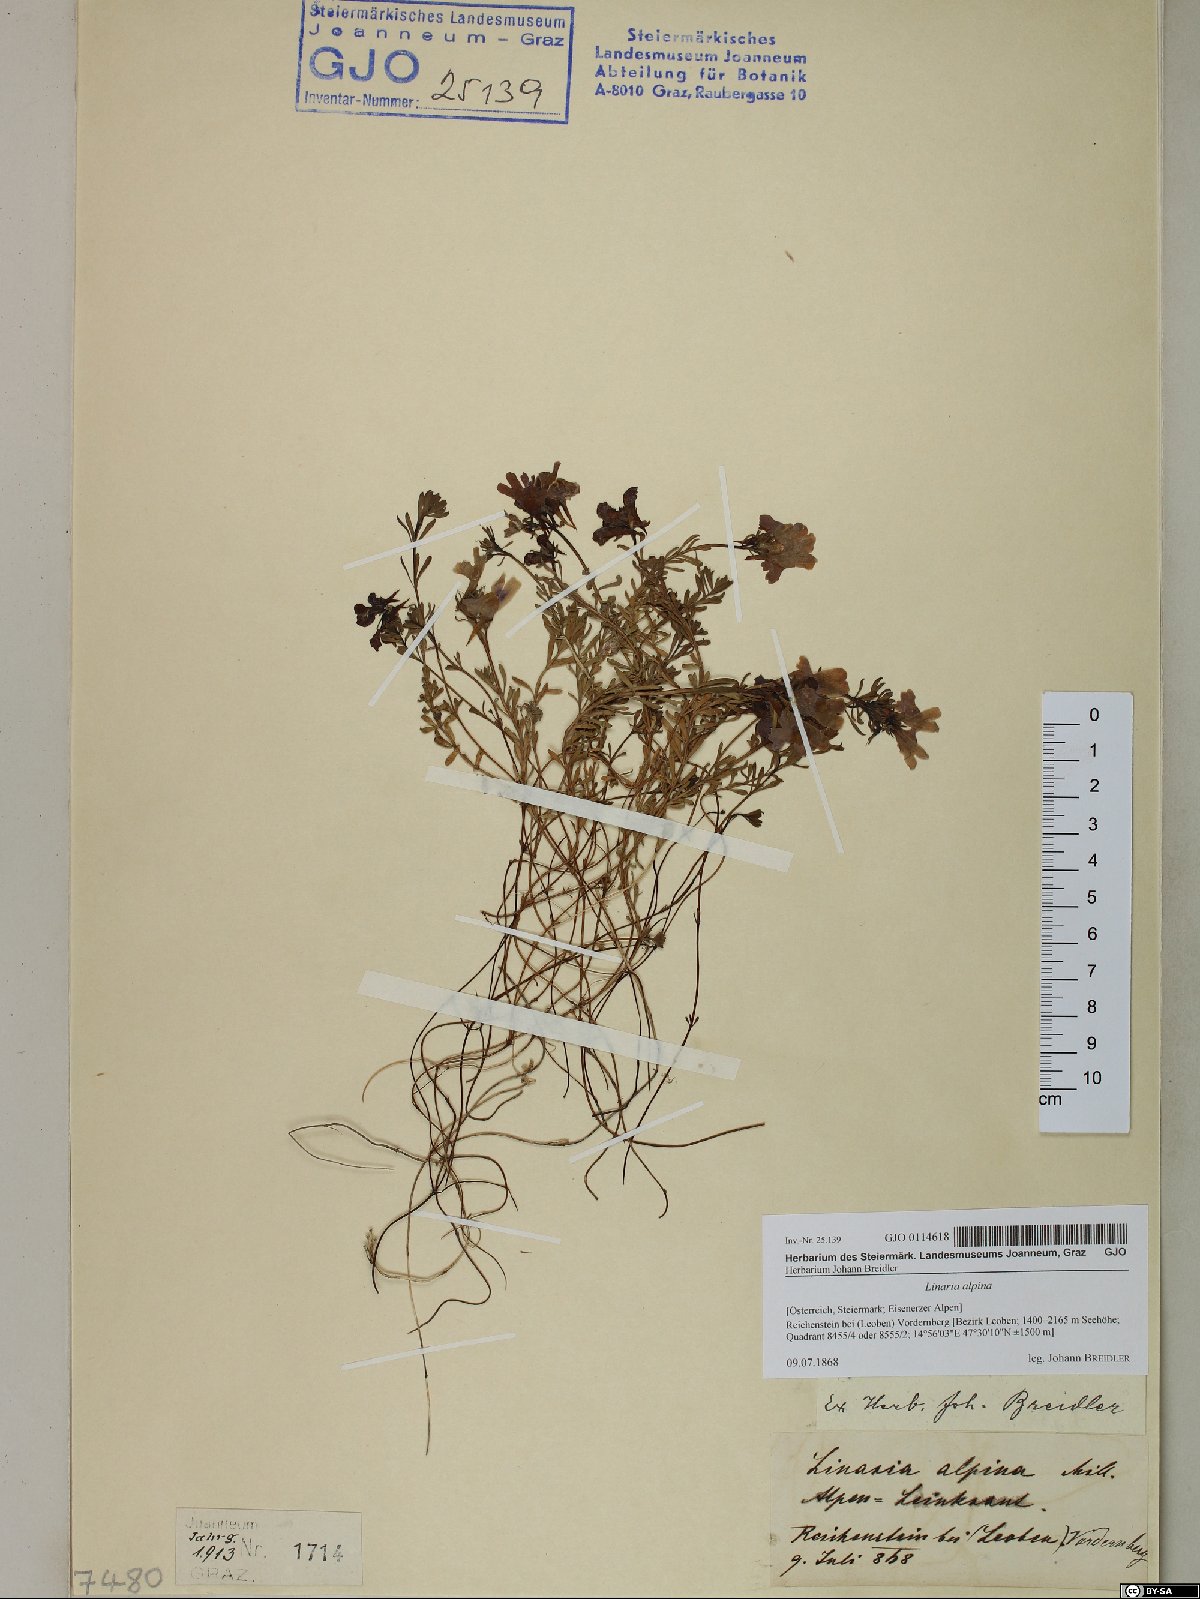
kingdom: Plantae
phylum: Tracheophyta
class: Magnoliopsida
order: Lamiales
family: Plantaginaceae
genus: Linaria
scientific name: Linaria alpina
